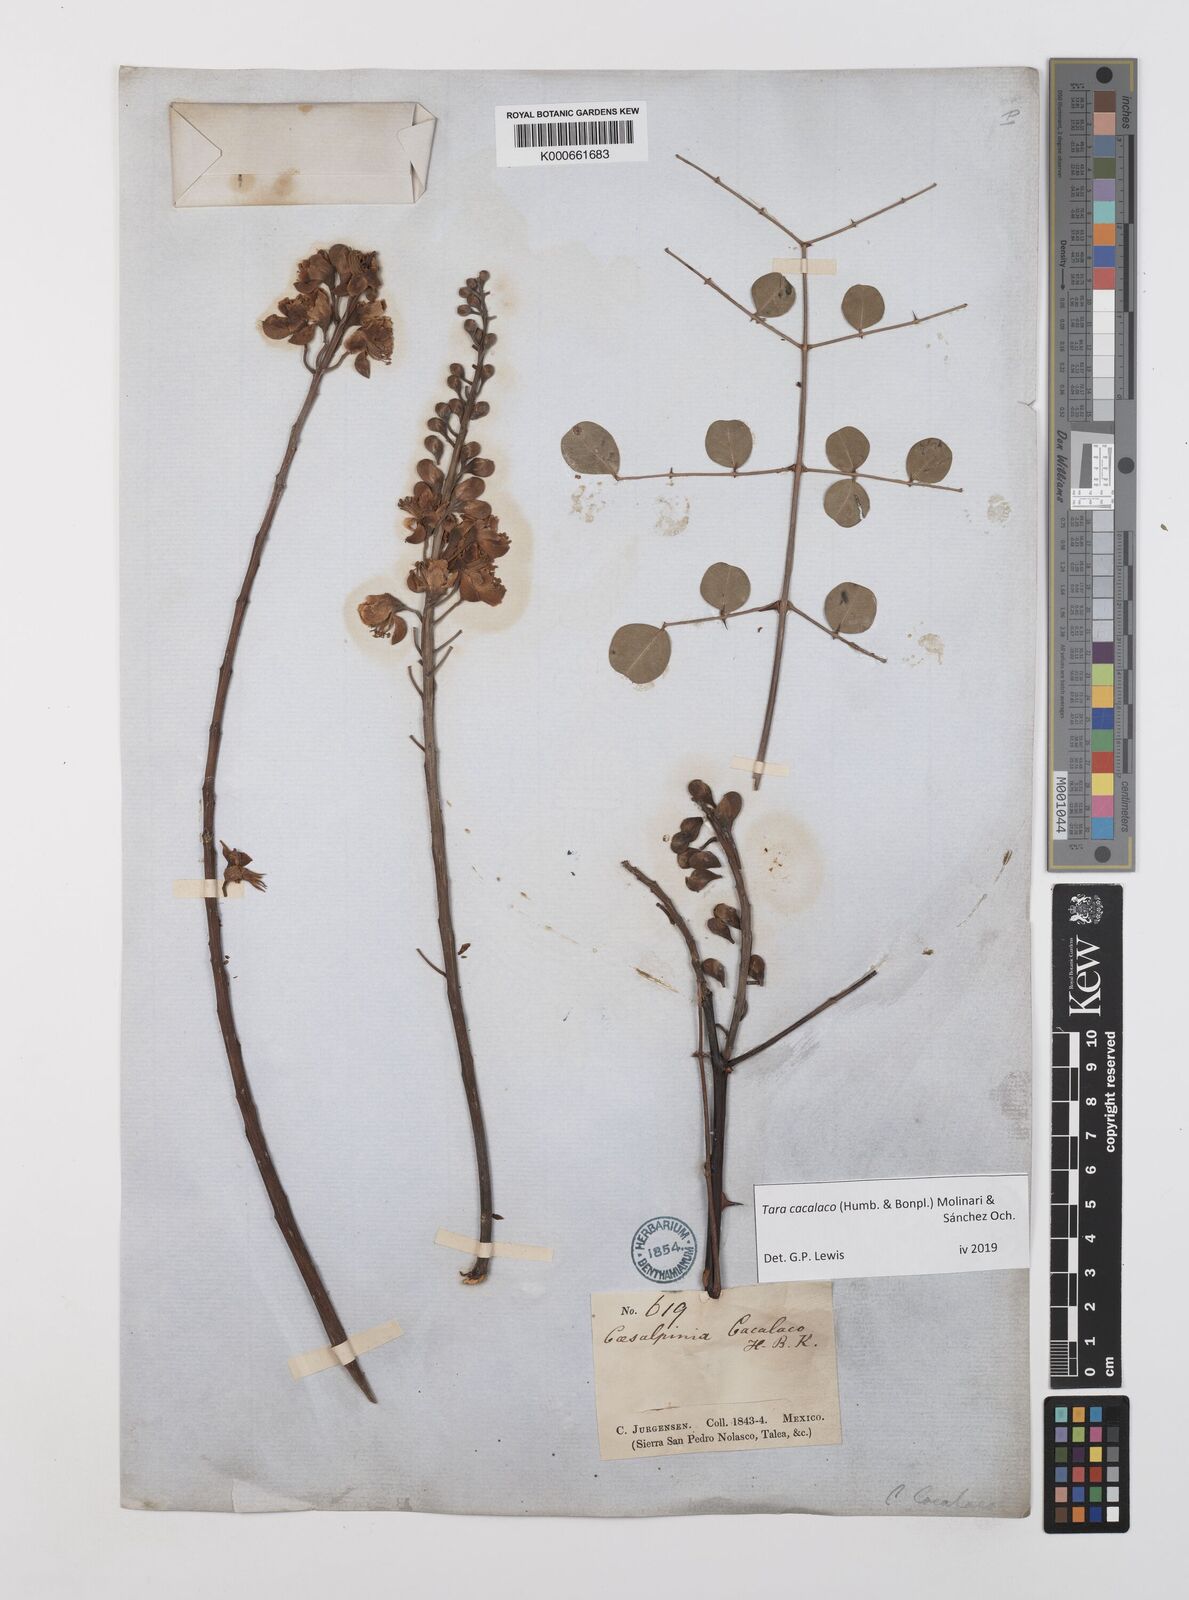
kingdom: Plantae
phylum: Tracheophyta
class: Magnoliopsida
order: Fabales
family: Fabaceae
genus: Tara
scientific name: Tara cacalaco
